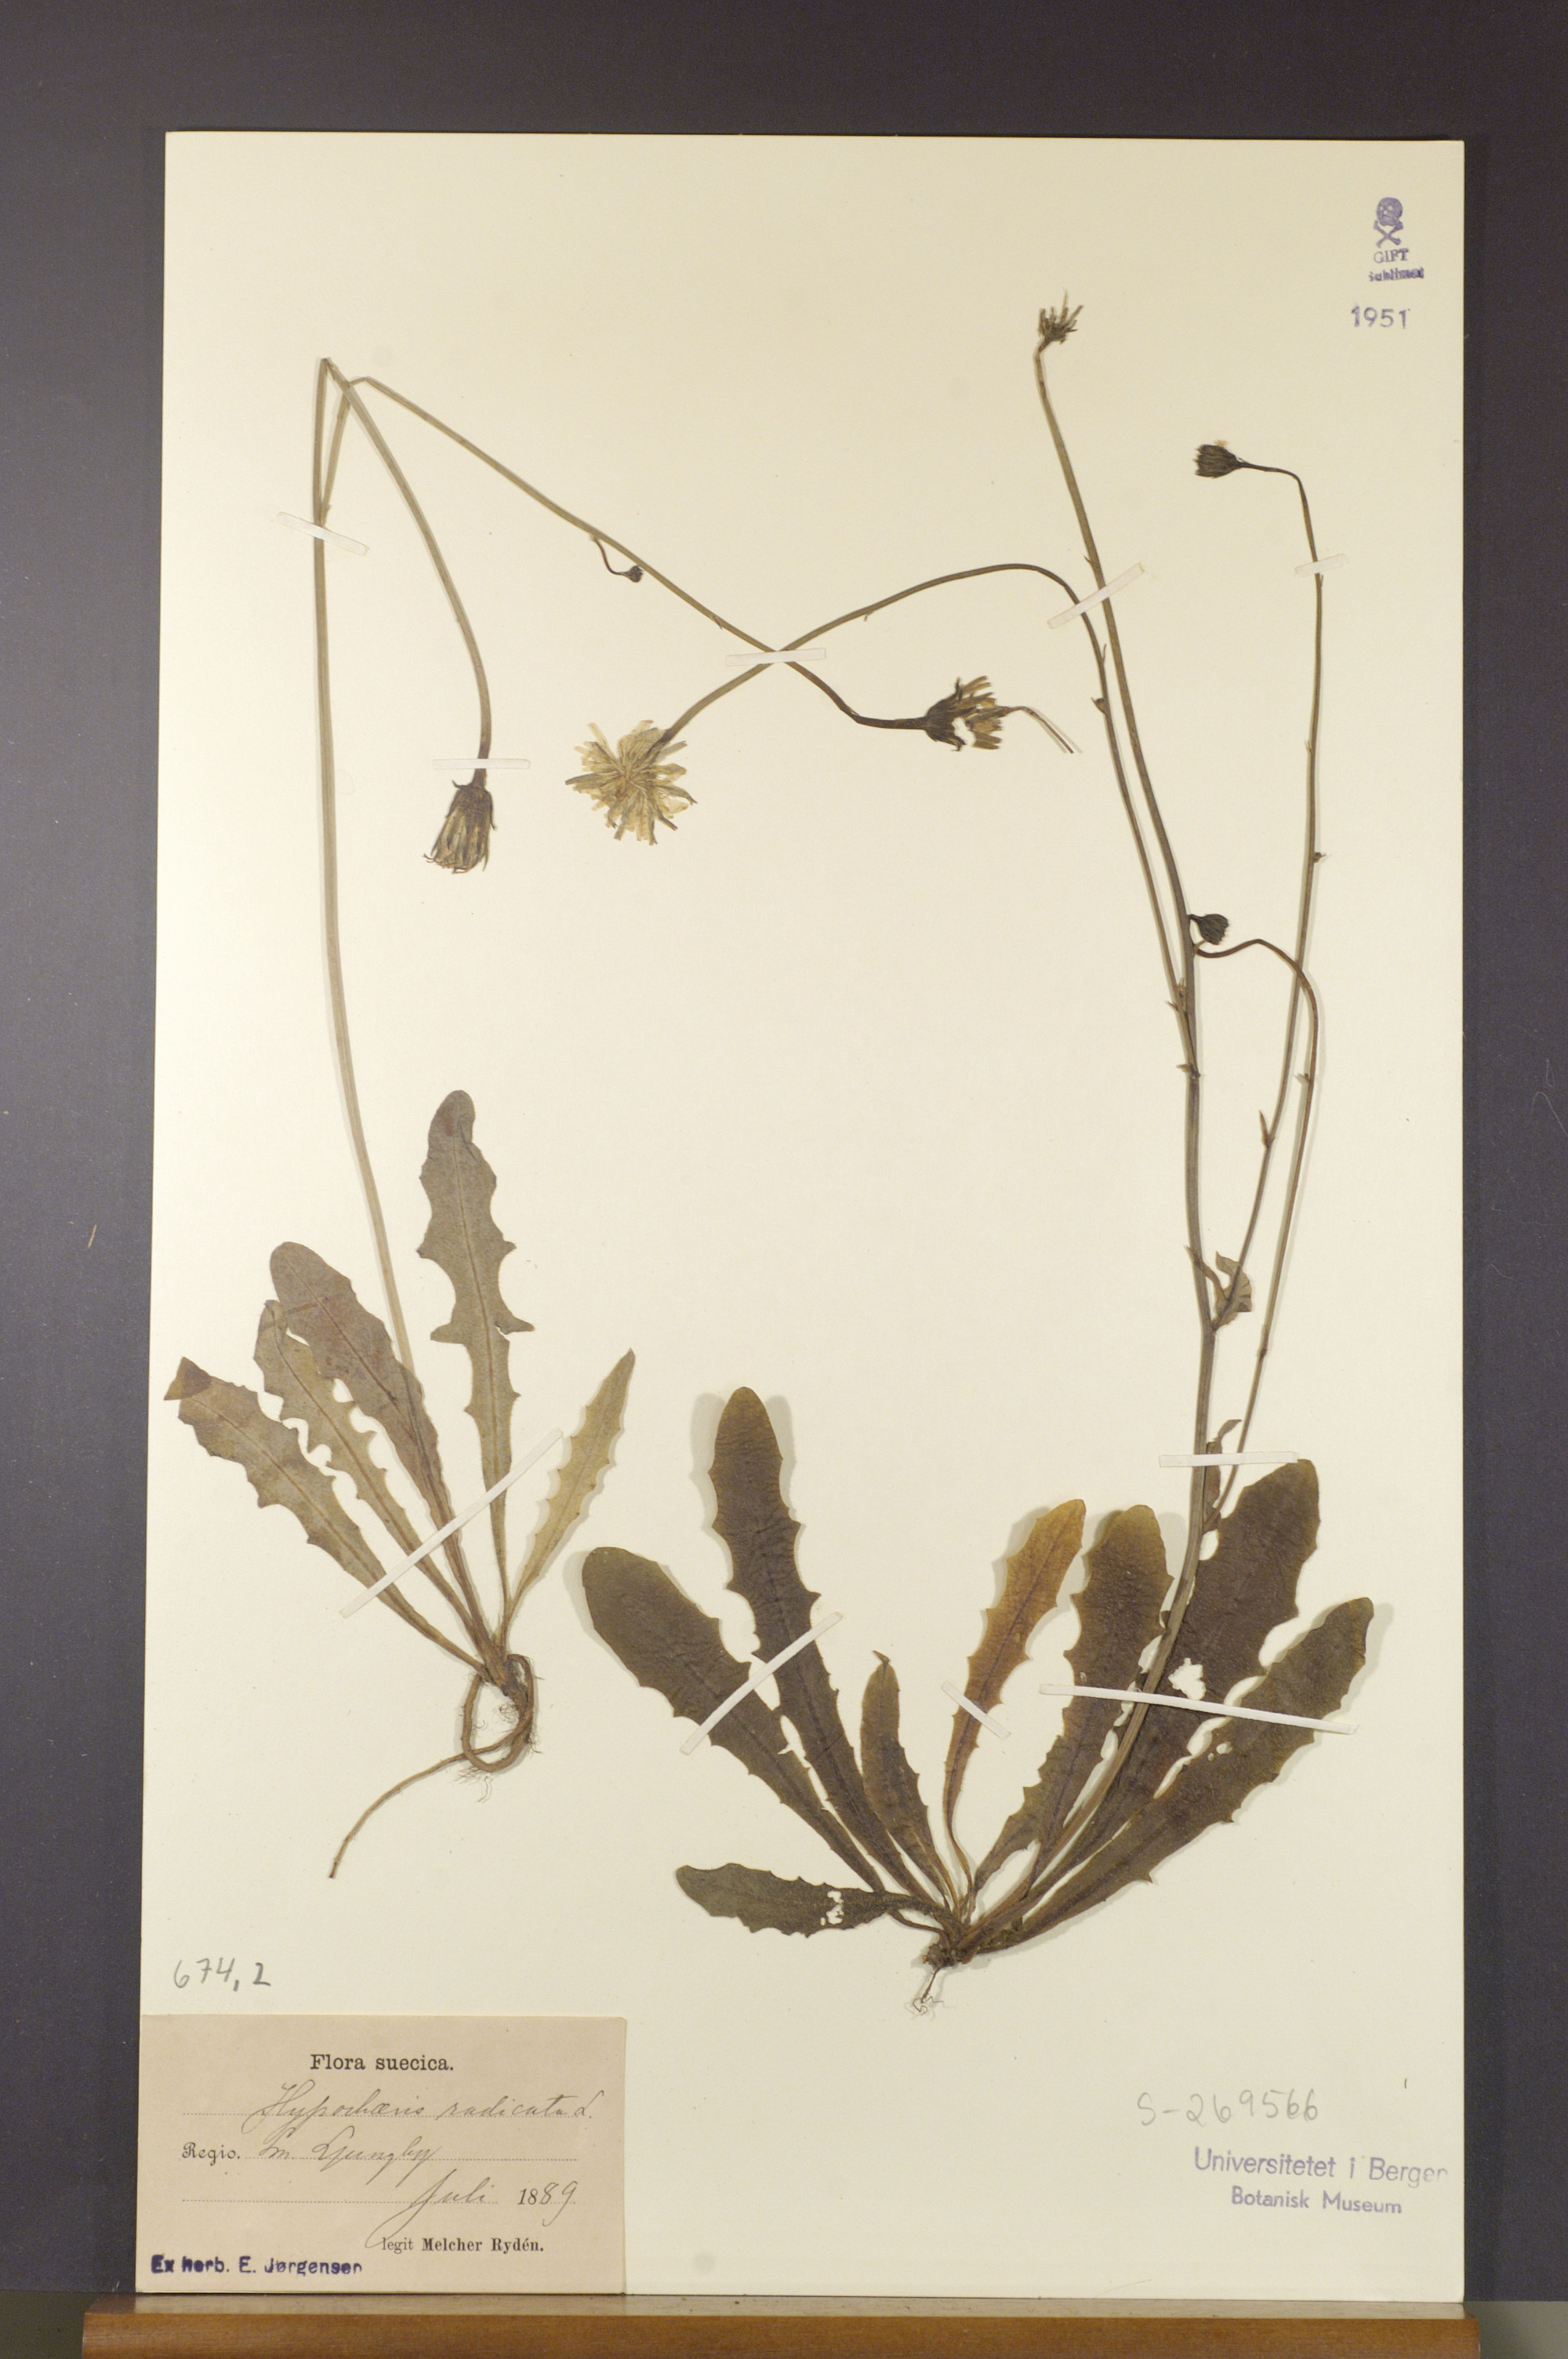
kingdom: Plantae
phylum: Tracheophyta
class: Magnoliopsida
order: Asterales
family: Asteraceae
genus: Hypochaeris
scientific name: Hypochaeris radicata
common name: Flatweed
